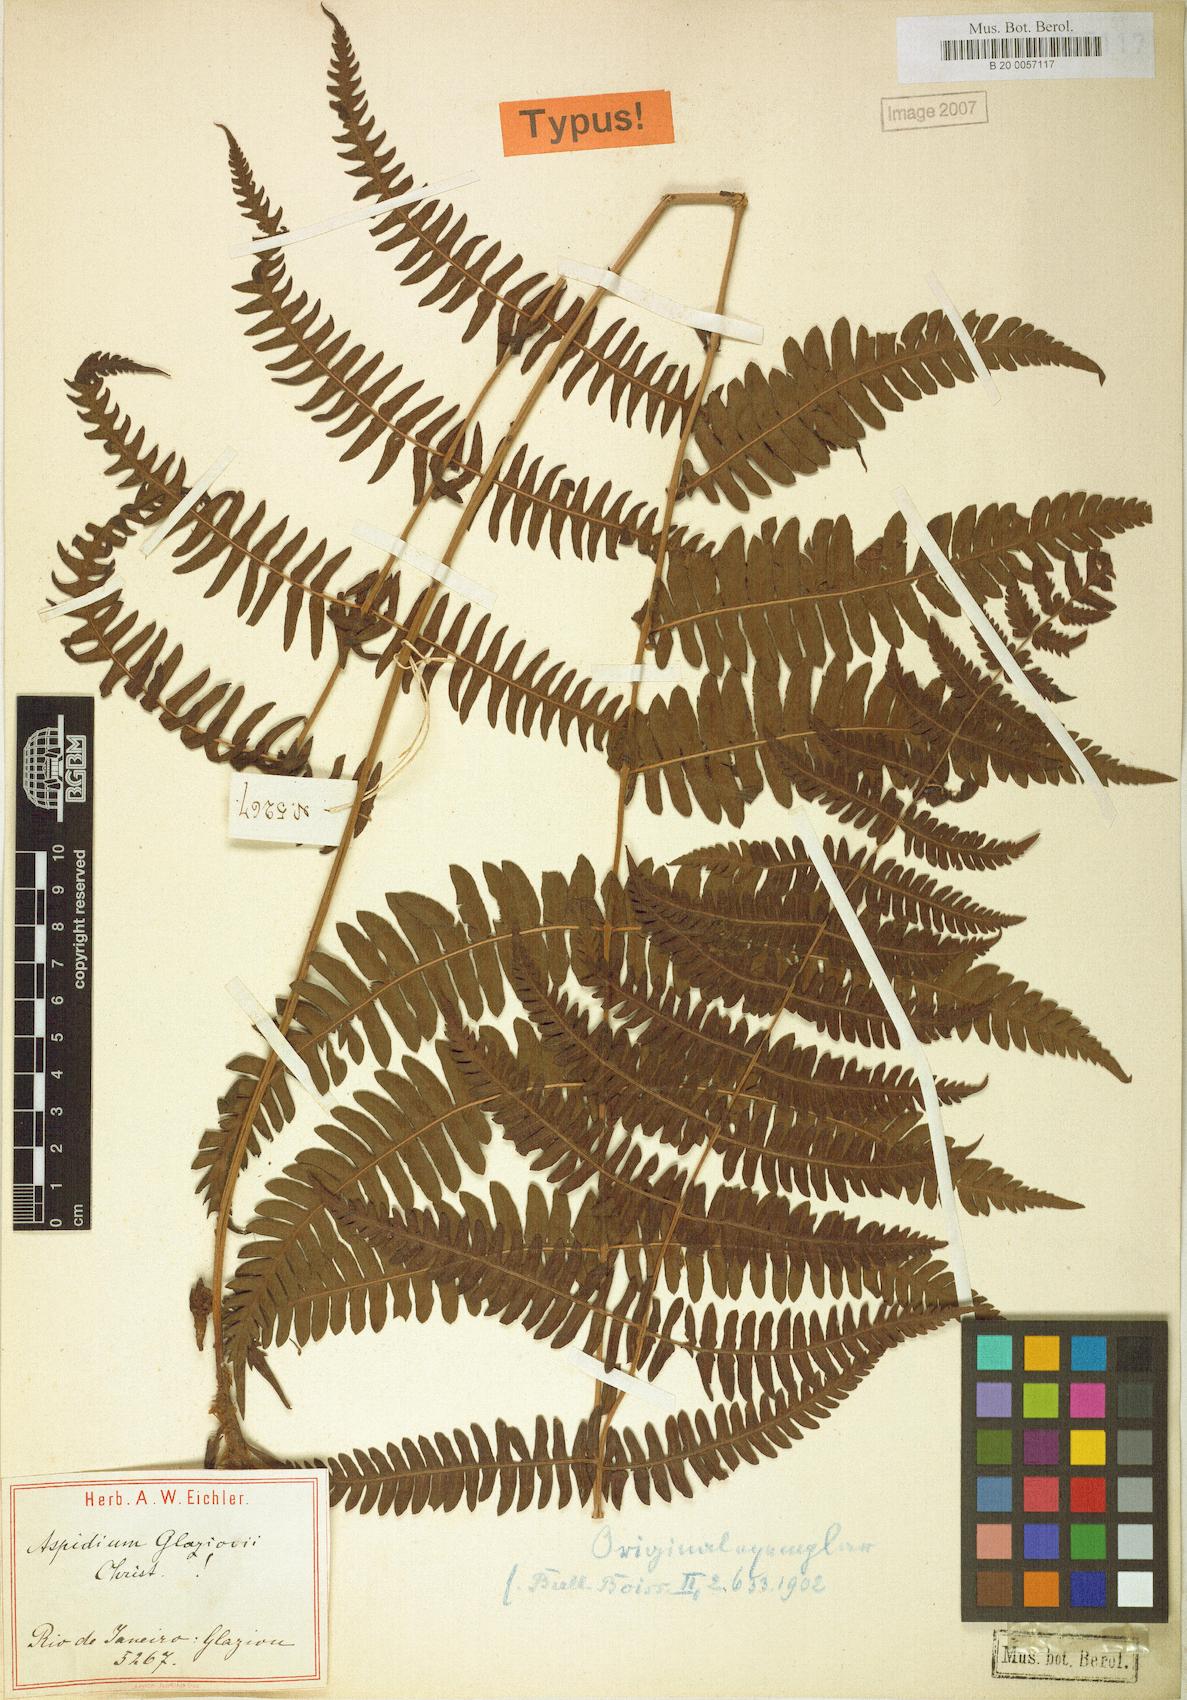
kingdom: Plantae
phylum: Tracheophyta
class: Polypodiopsida
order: Polypodiales
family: Thelypteridaceae
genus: Amauropelta
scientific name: Amauropelta patula
